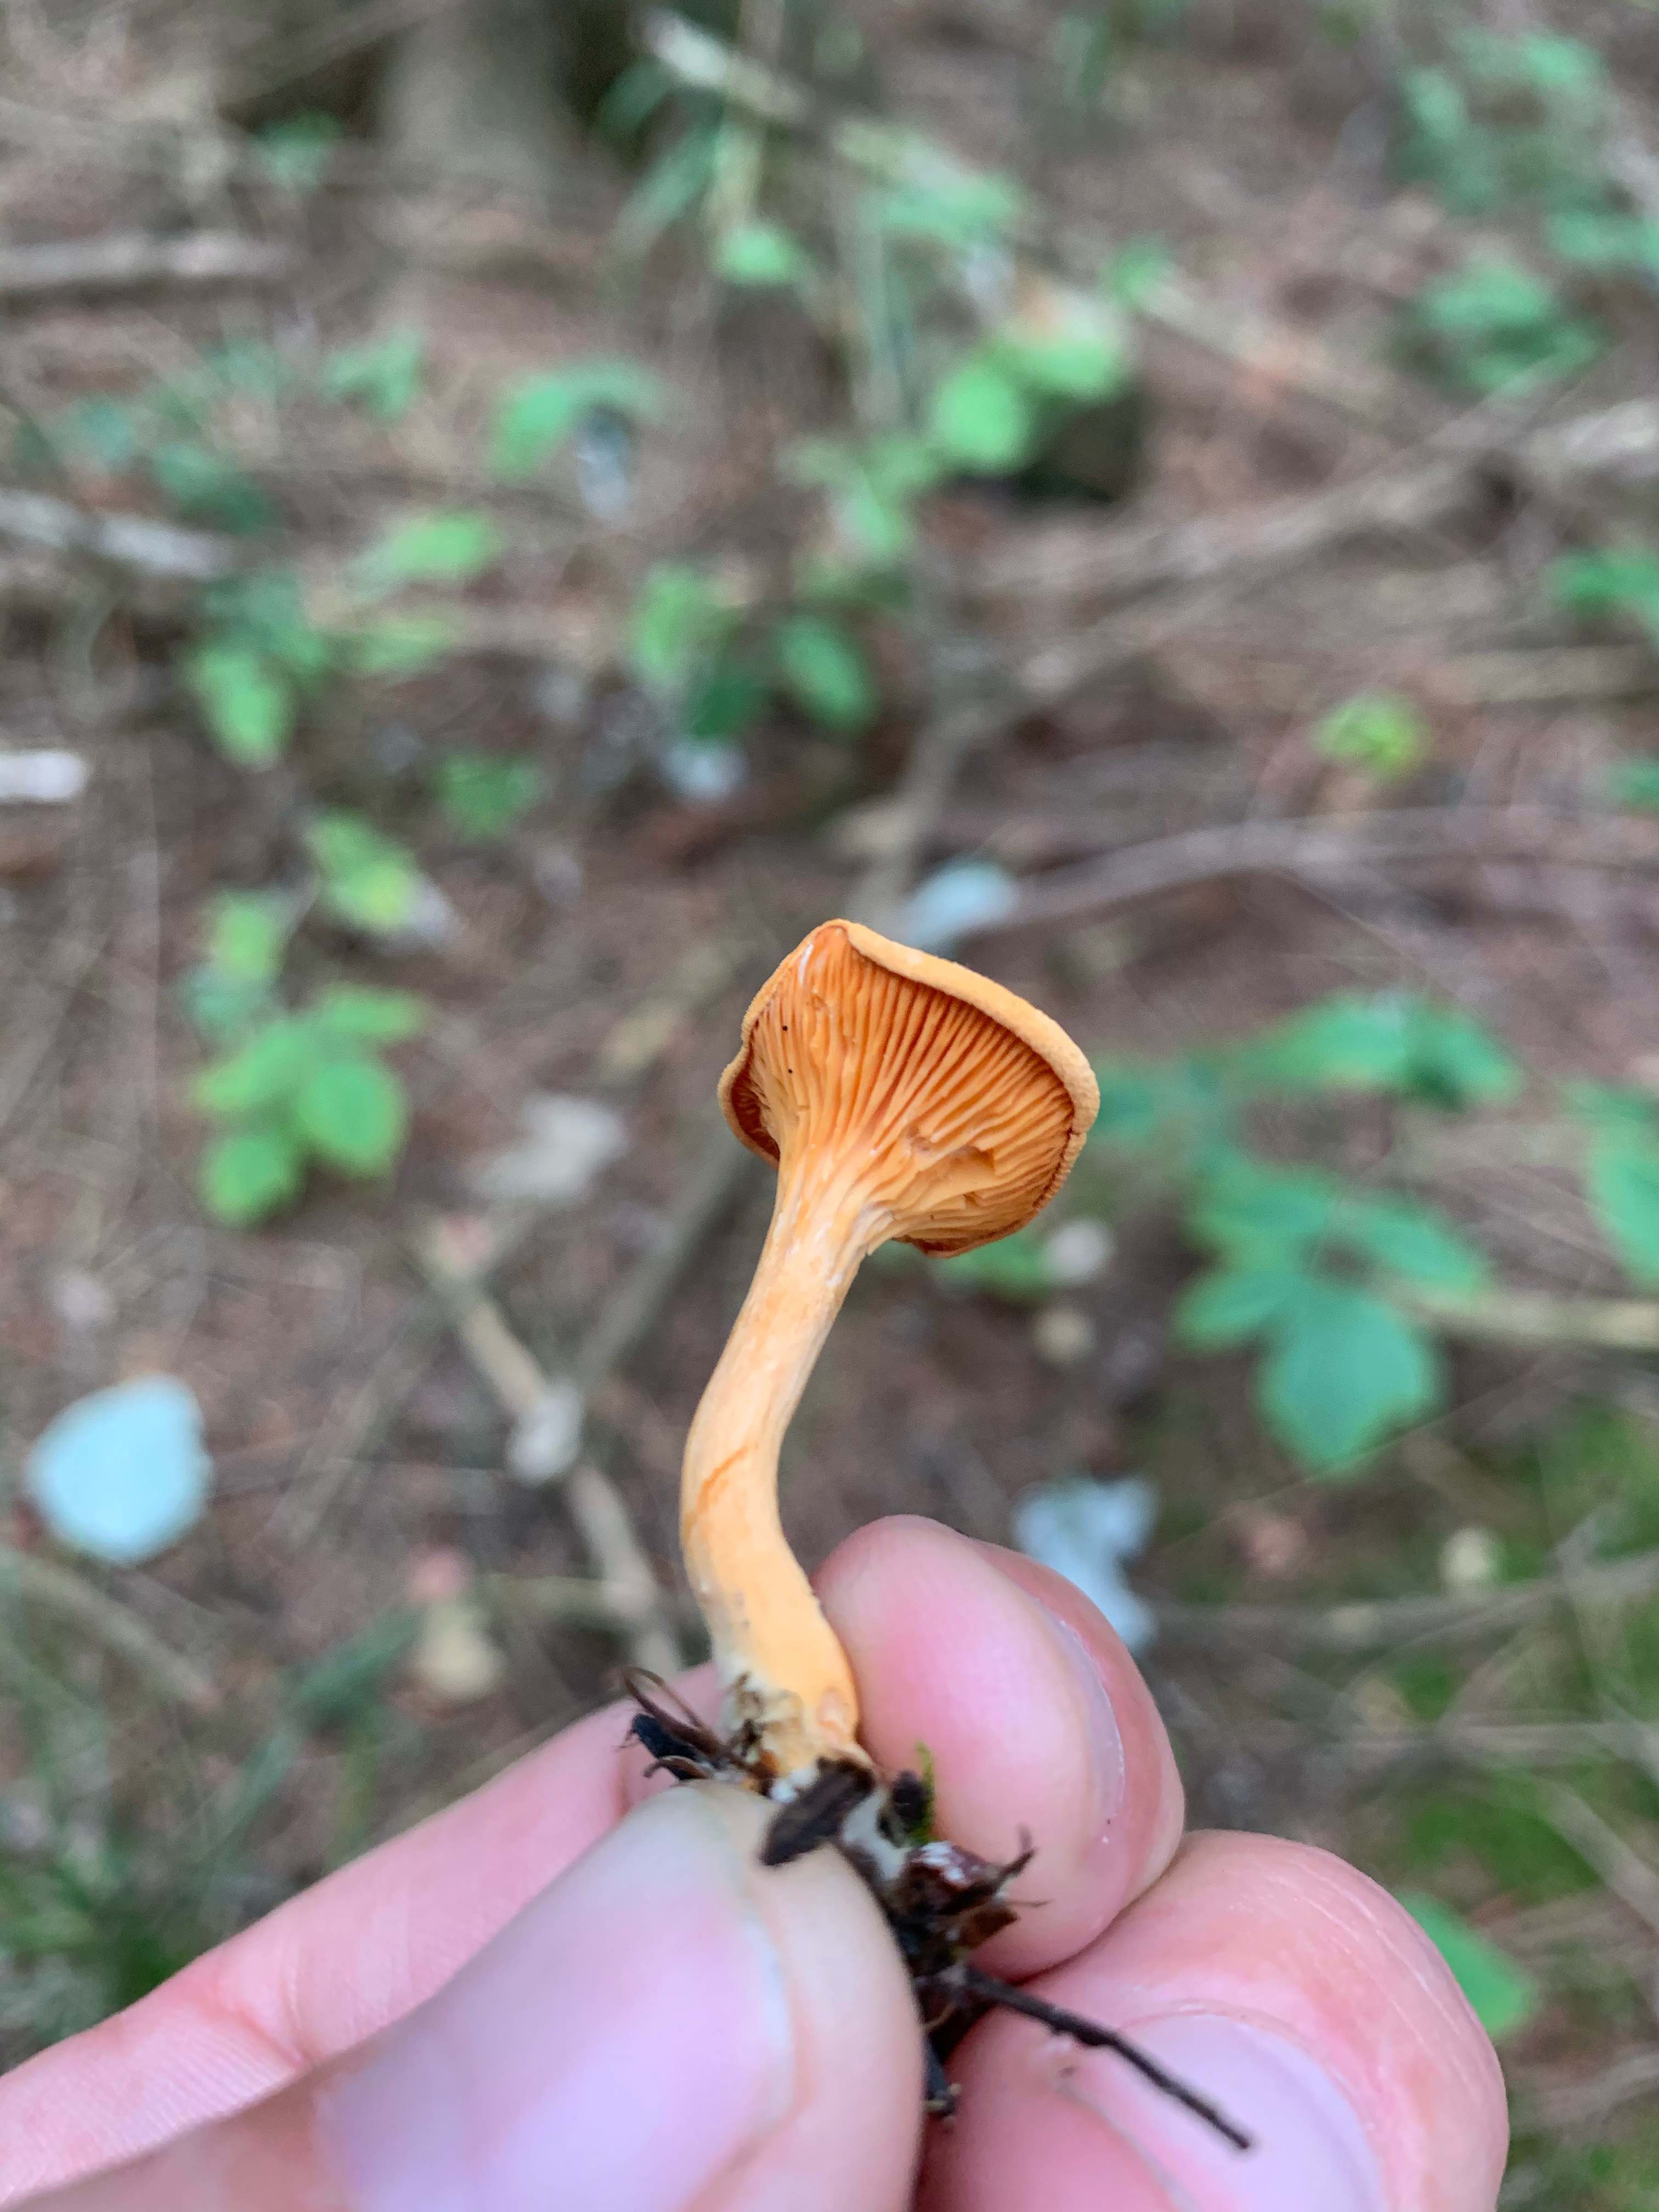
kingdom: Fungi
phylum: Basidiomycota
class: Agaricomycetes
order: Boletales
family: Hygrophoropsidaceae
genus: Hygrophoropsis
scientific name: Hygrophoropsis aurantiaca
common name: almindelig orangekantarel
